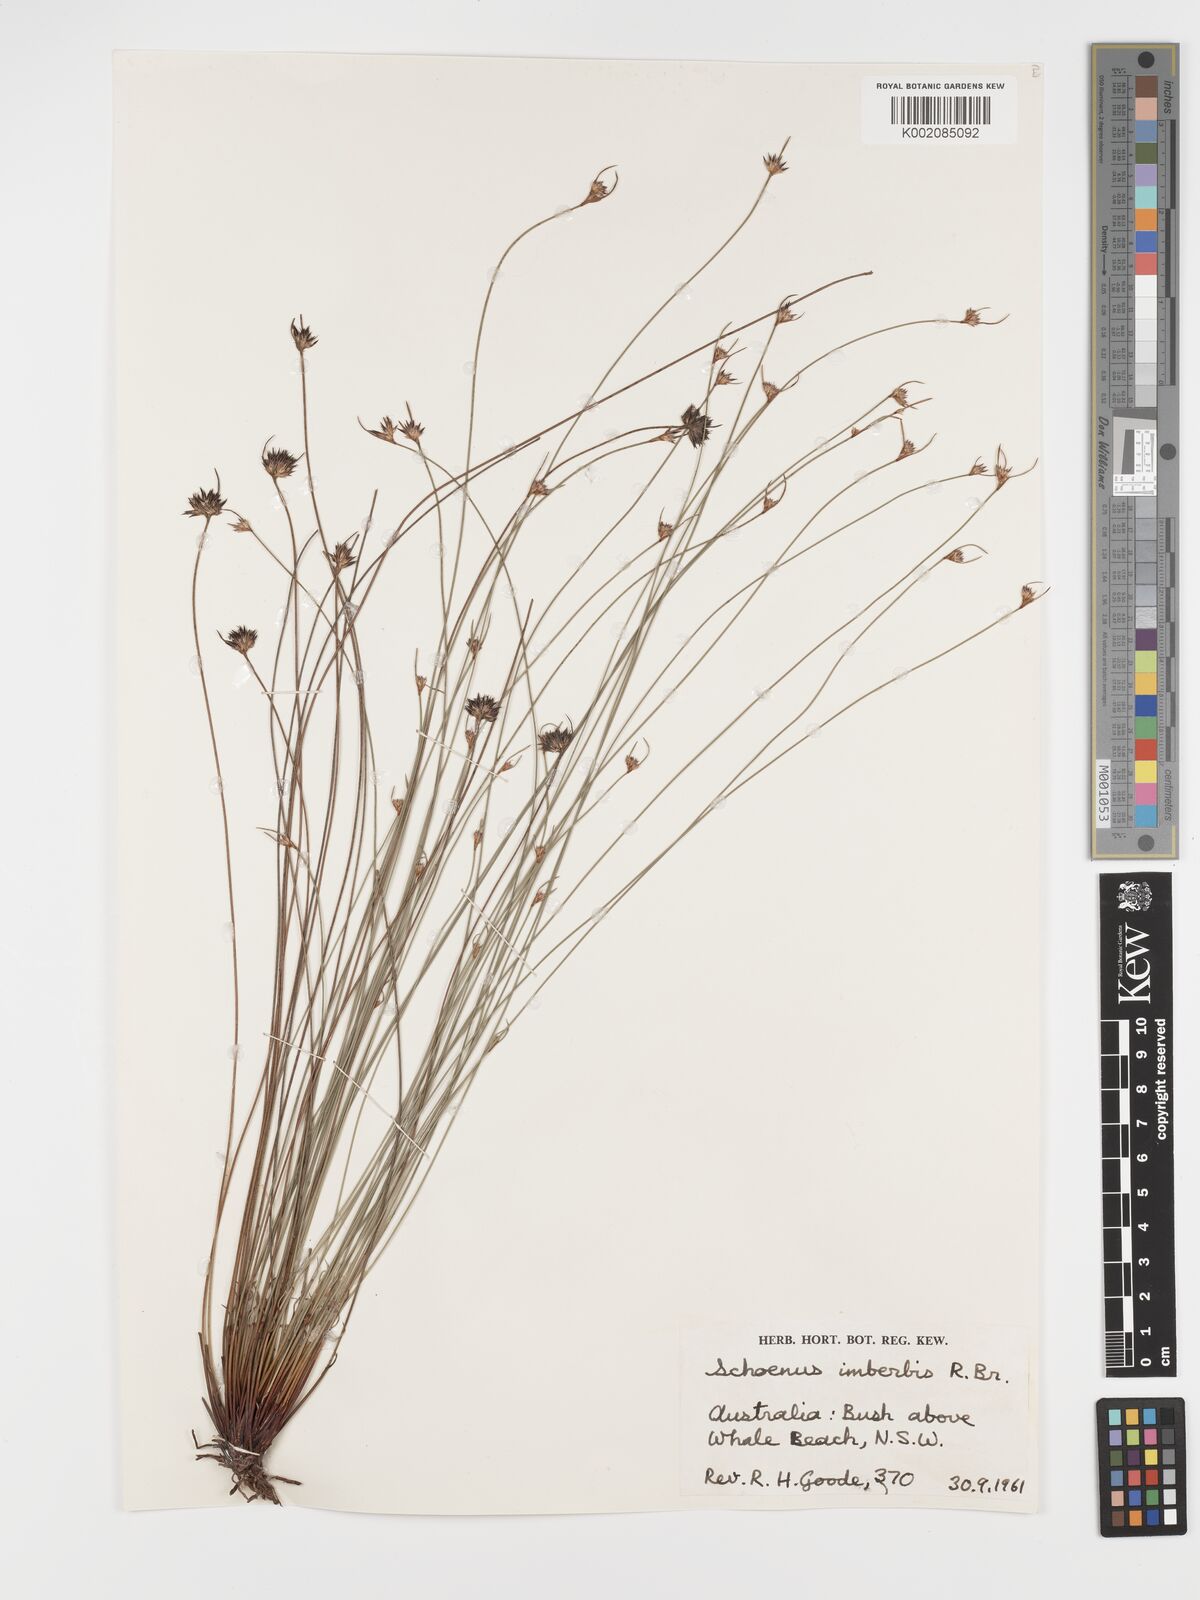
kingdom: Plantae
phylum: Tracheophyta
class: Liliopsida
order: Poales
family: Cyperaceae
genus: Schoenus
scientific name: Schoenus imberbis
